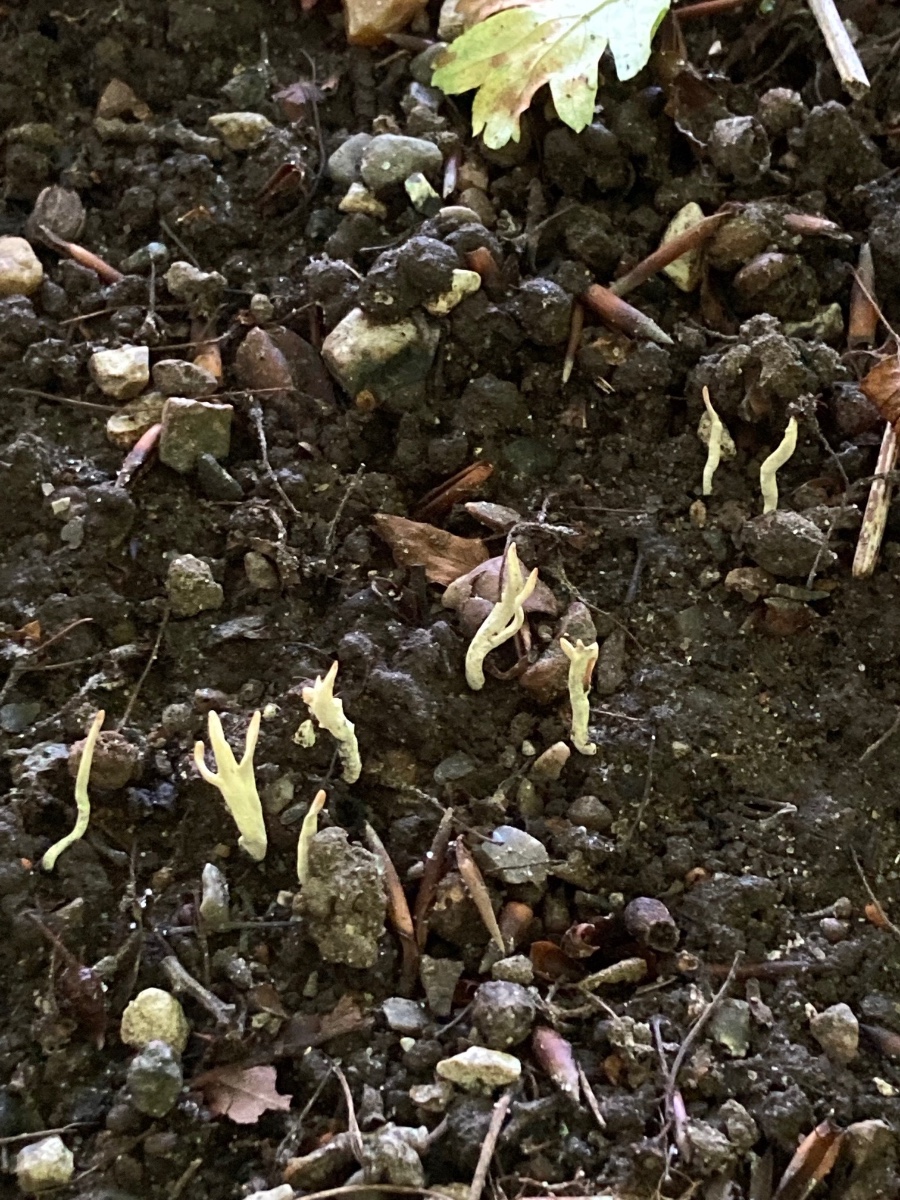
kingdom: Fungi
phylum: Ascomycota
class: Sordariomycetes
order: Xylariales
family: Xylariaceae
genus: Xylaria
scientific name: Xylaria oxyacanthae
